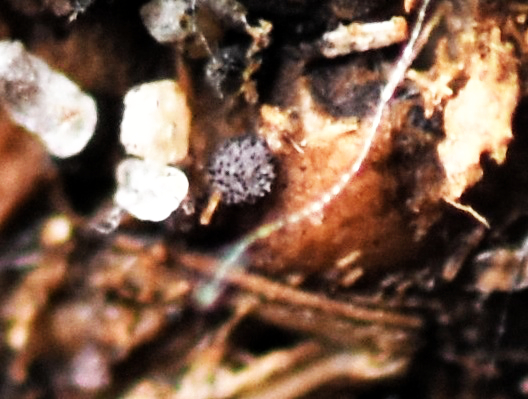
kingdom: Fungi
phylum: Ascomycota
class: Pezizomycetes
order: Pezizales
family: Ascobolaceae
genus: Saccobolus
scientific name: Saccobolus versicolor
